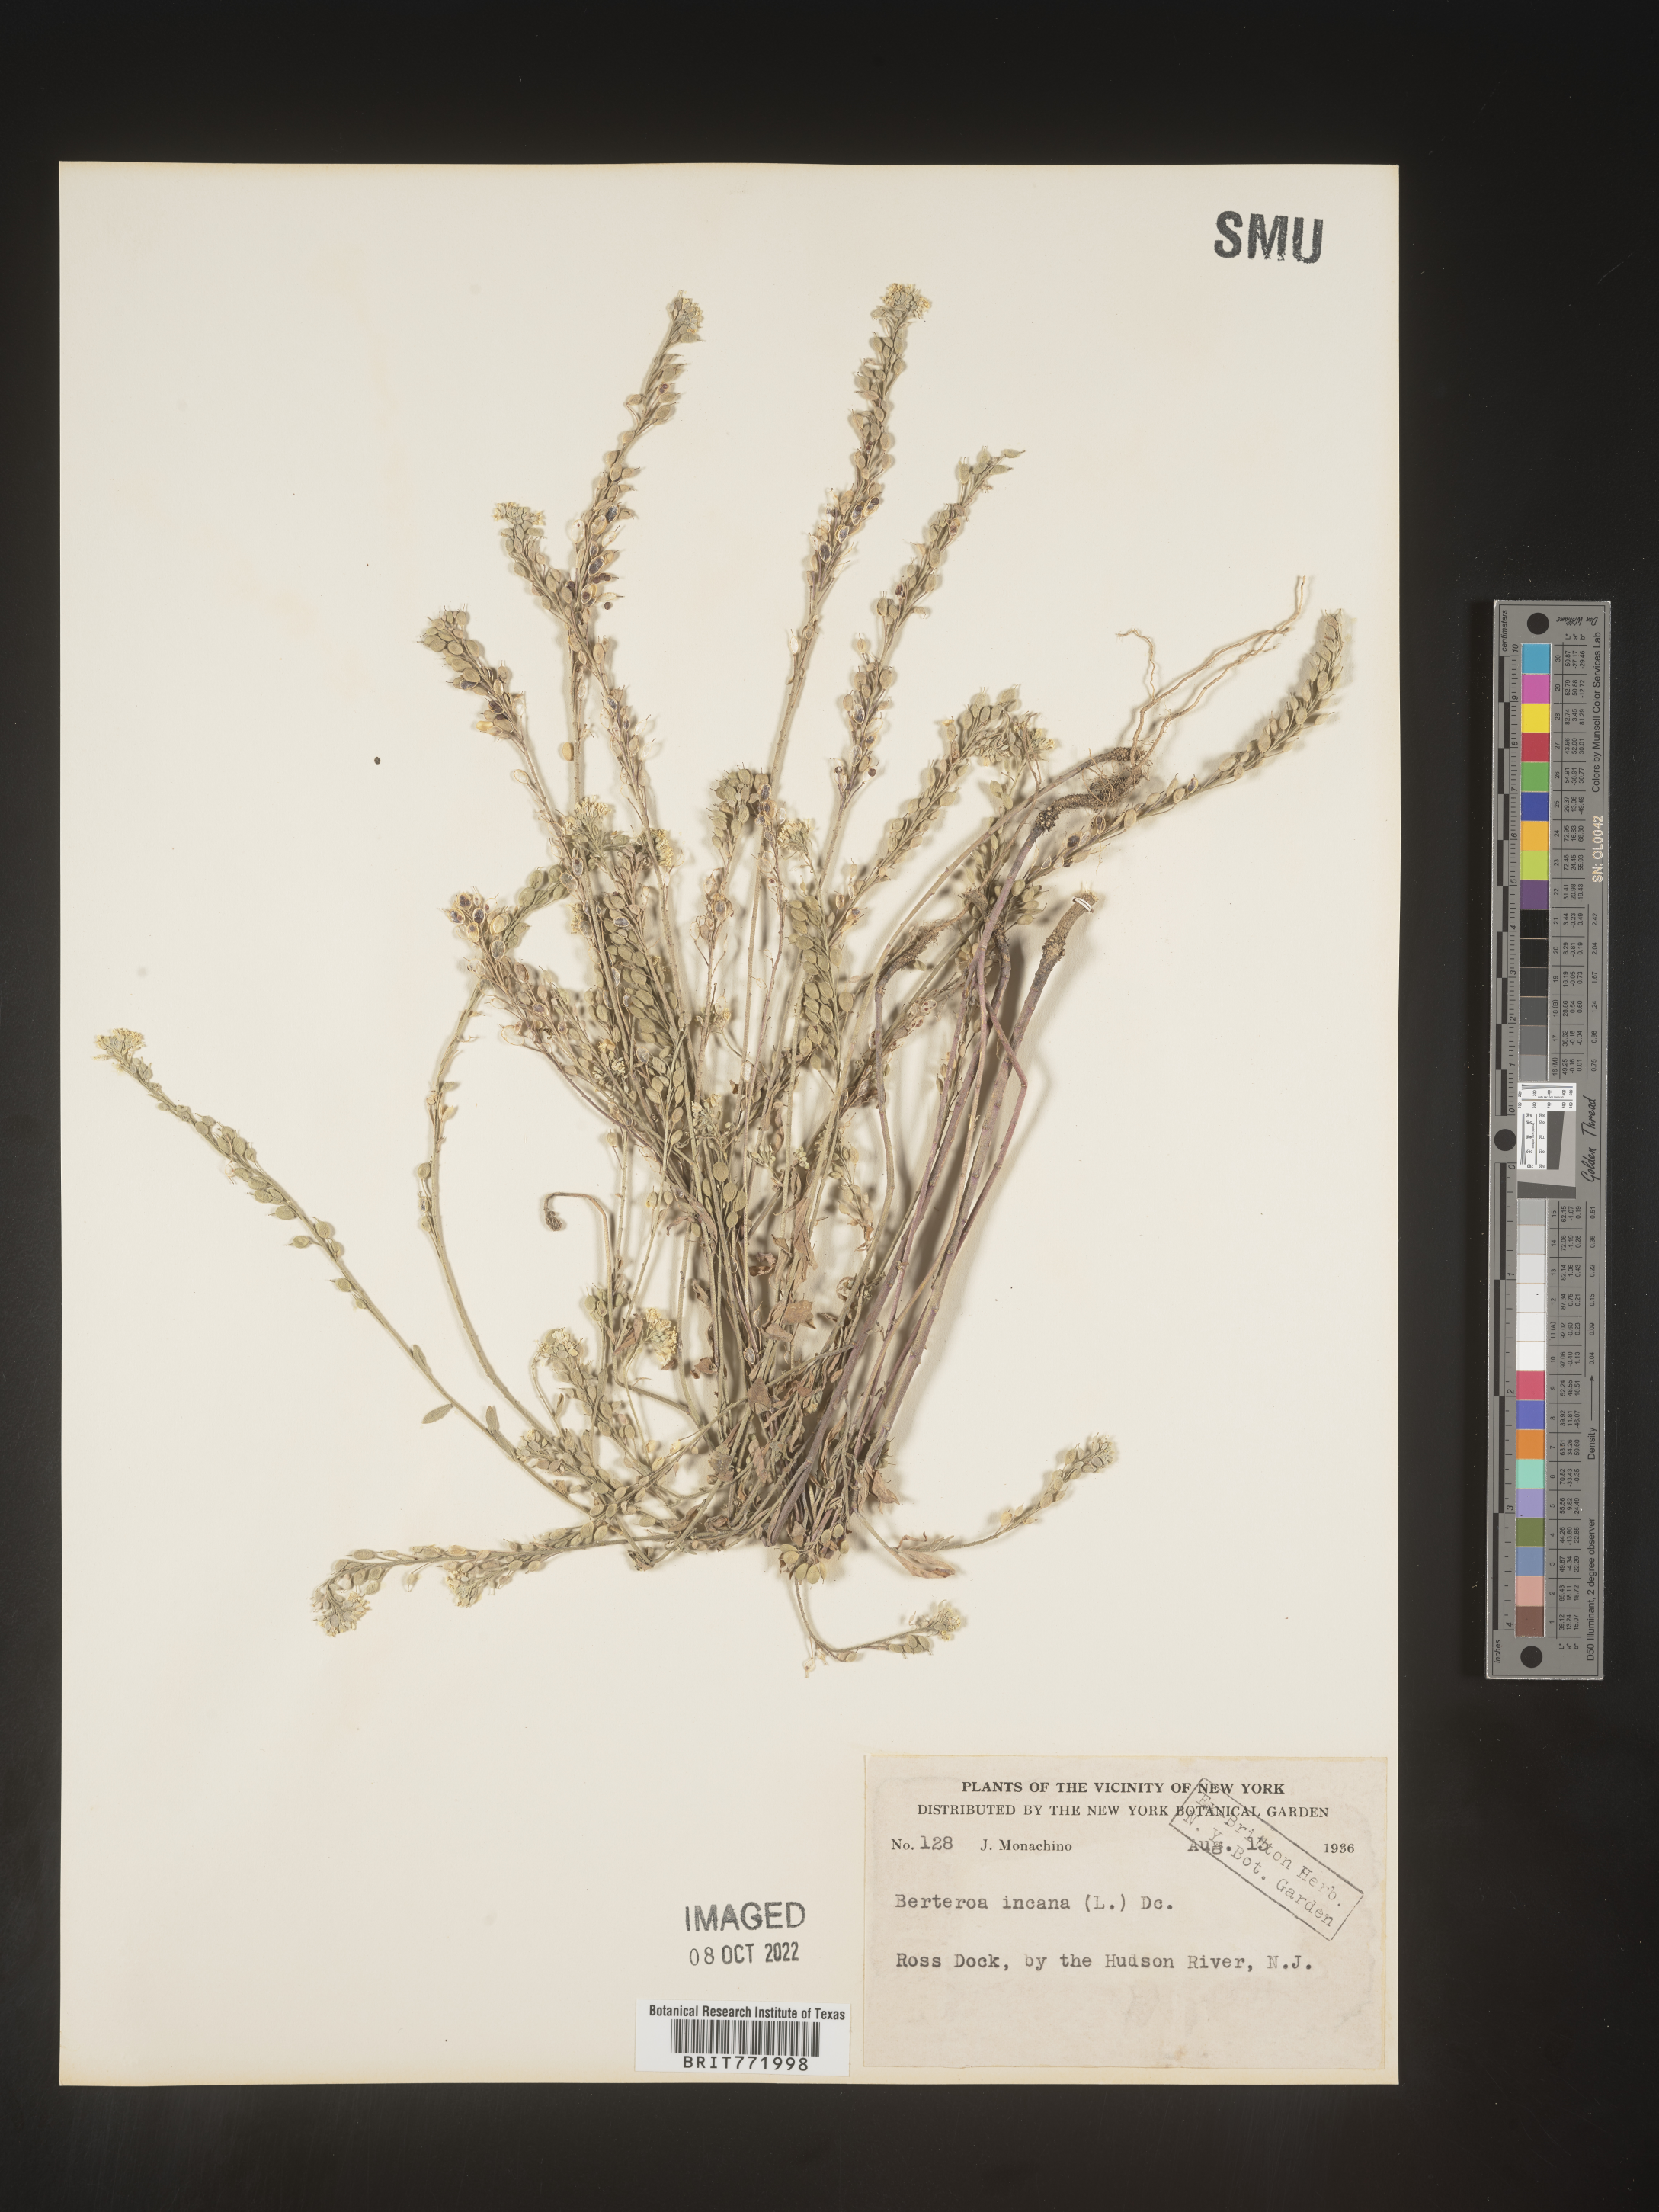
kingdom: Plantae
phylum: Tracheophyta
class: Magnoliopsida
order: Brassicales
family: Brassicaceae
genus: Berteroa
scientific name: Berteroa incana
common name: Hoary alison
